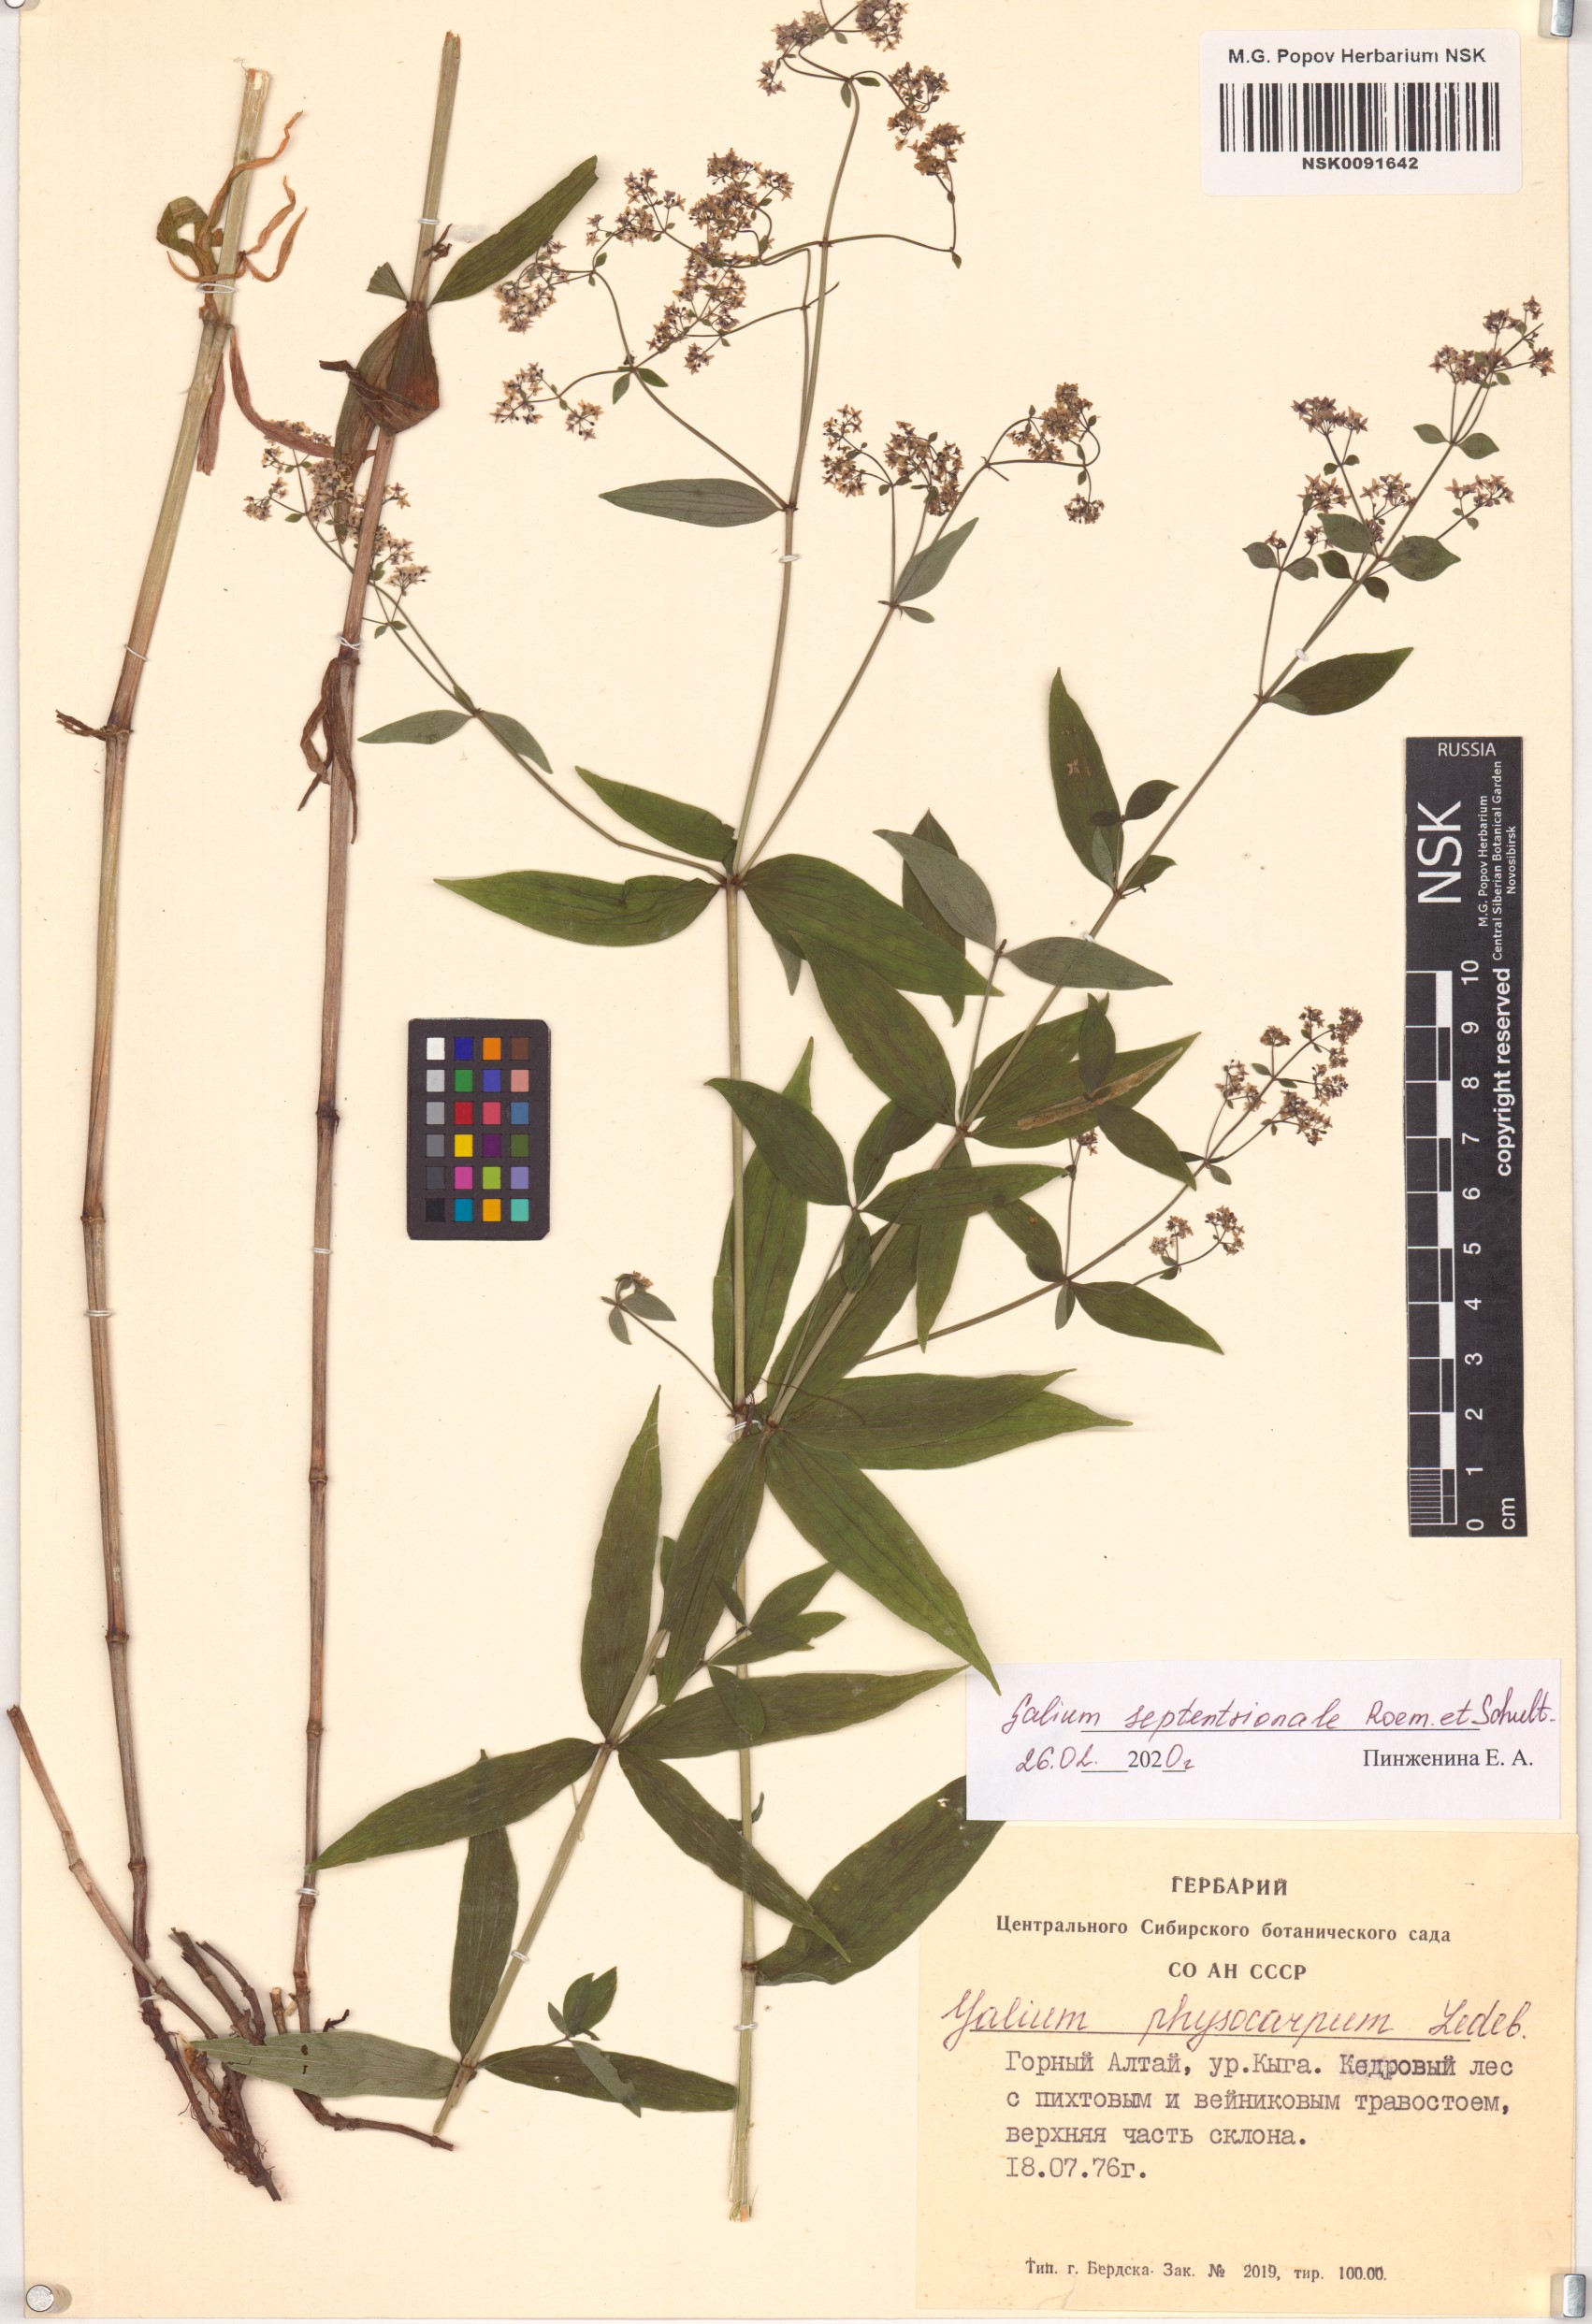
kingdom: Plantae
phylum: Tracheophyta
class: Magnoliopsida
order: Gentianales
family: Rubiaceae
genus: Galium
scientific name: Galium boreale
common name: Northern bedstraw
